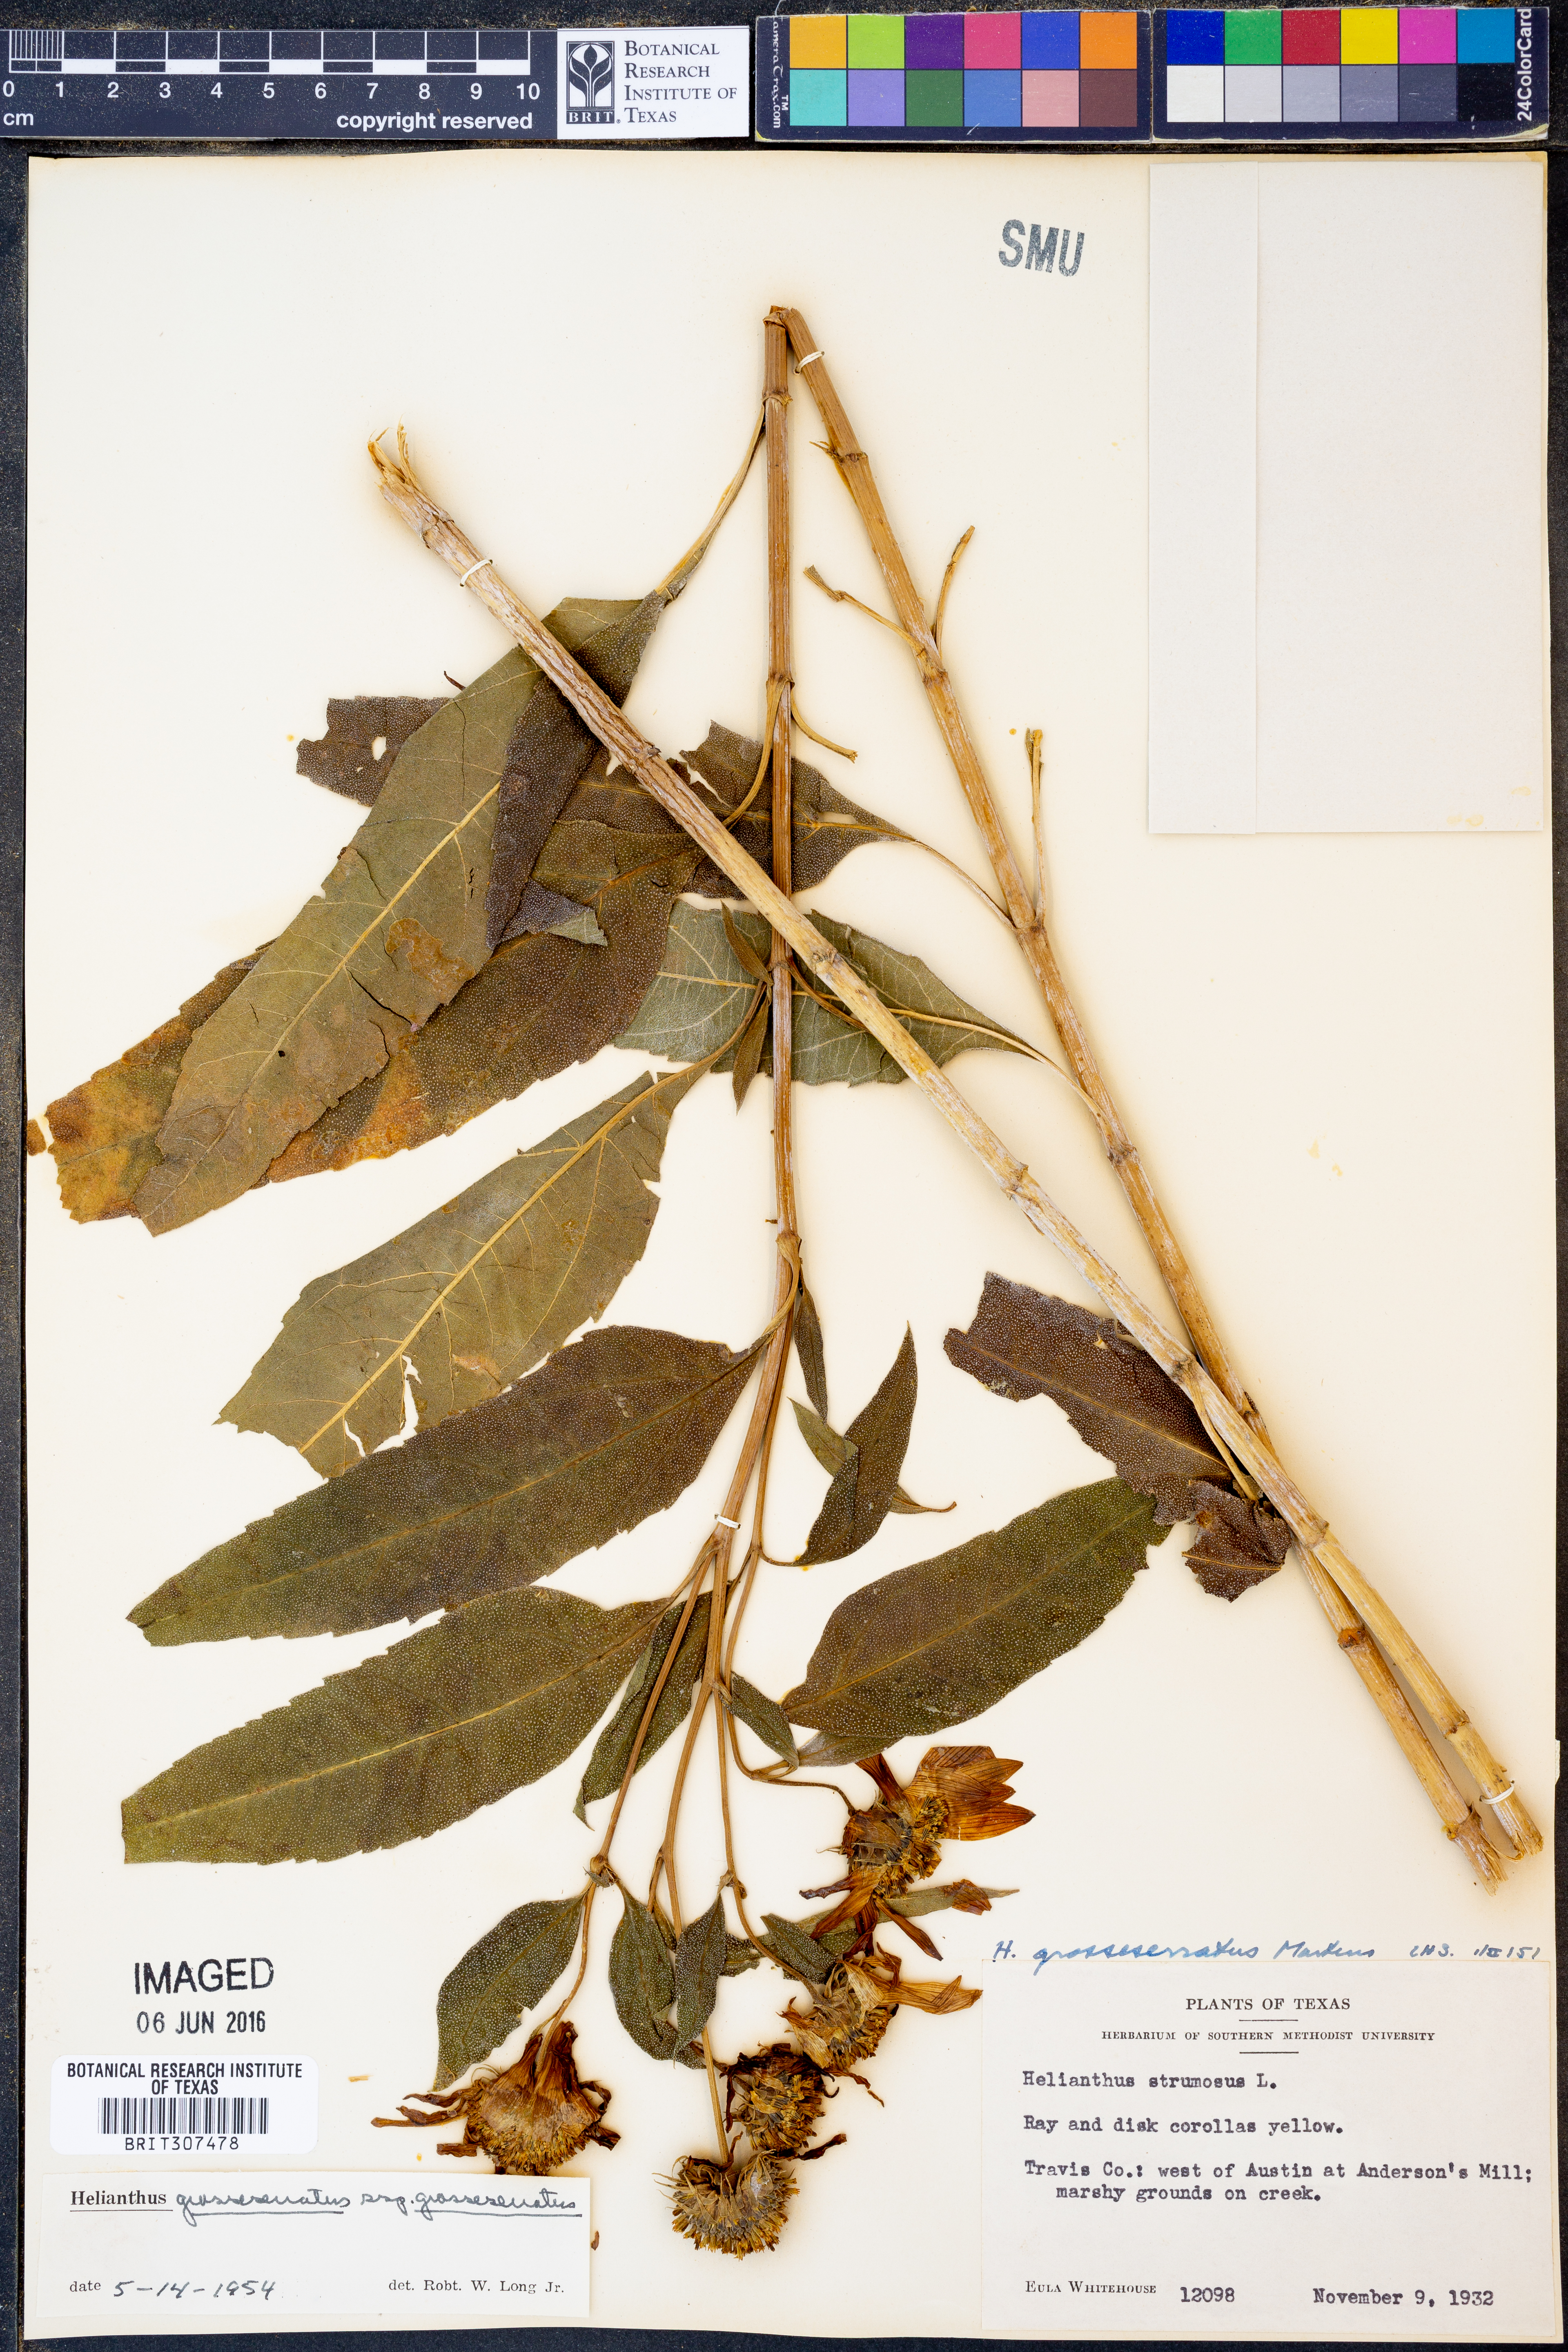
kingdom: Plantae
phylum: Tracheophyta
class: Magnoliopsida
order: Asterales
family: Asteraceae
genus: Helianthus
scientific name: Helianthus grosseserratus
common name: Sawtooth sunflower
